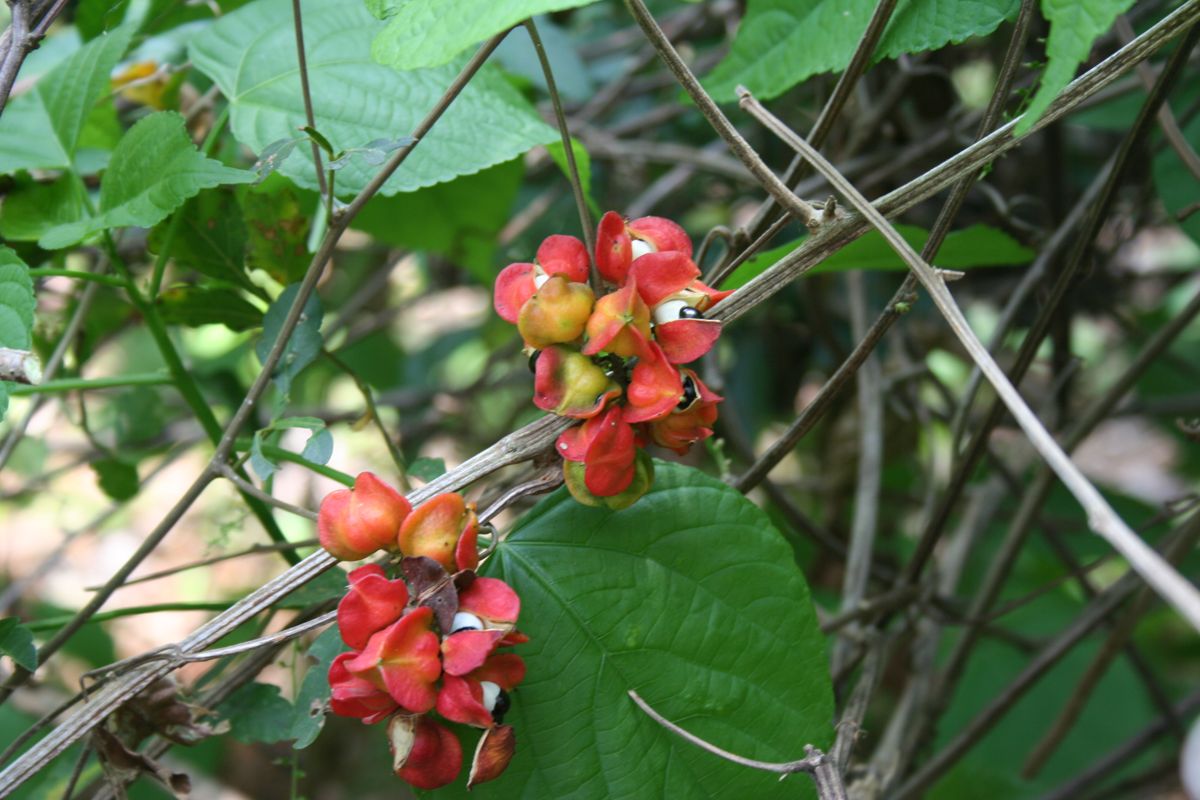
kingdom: Plantae
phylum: Tracheophyta
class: Magnoliopsida
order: Sapindales
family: Sapindaceae
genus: Paullinia
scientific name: Paullinia fuscescens
